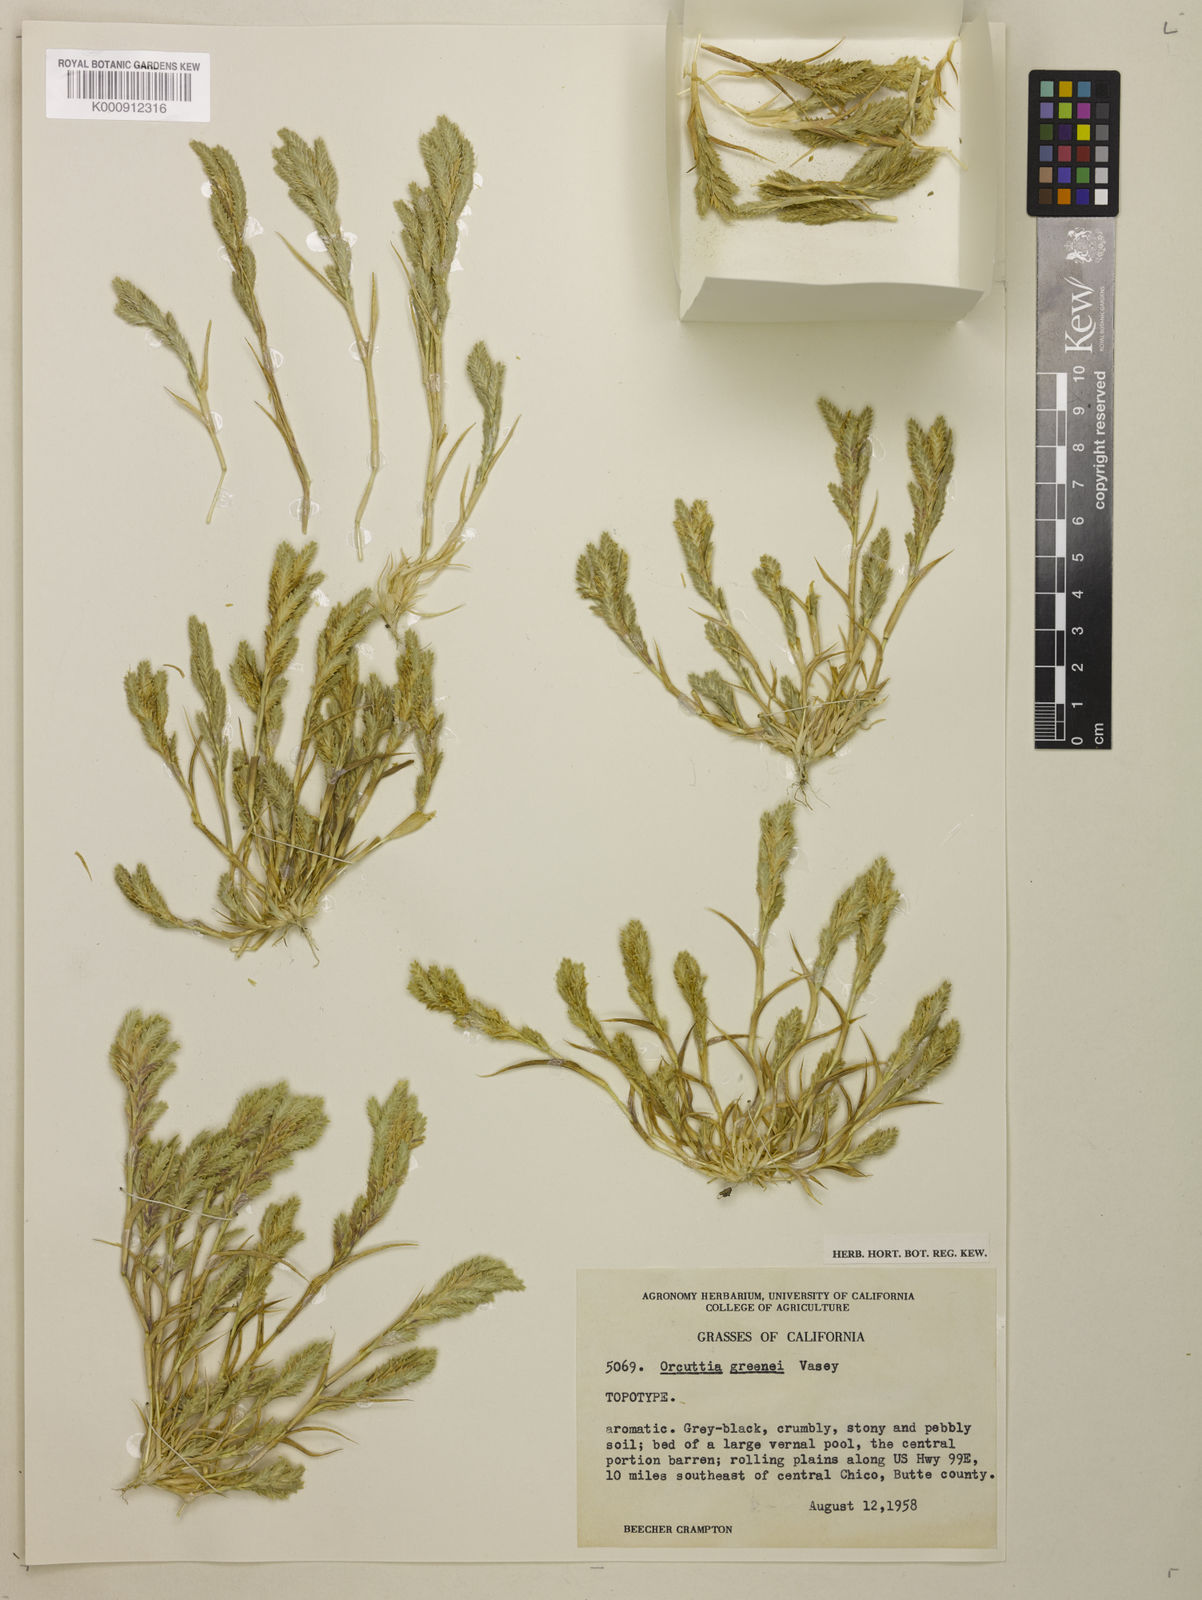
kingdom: Plantae
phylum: Tracheophyta
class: Liliopsida
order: Poales
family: Poaceae
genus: Tuctoria
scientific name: Tuctoria greenei
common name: Awnless spiral grass
